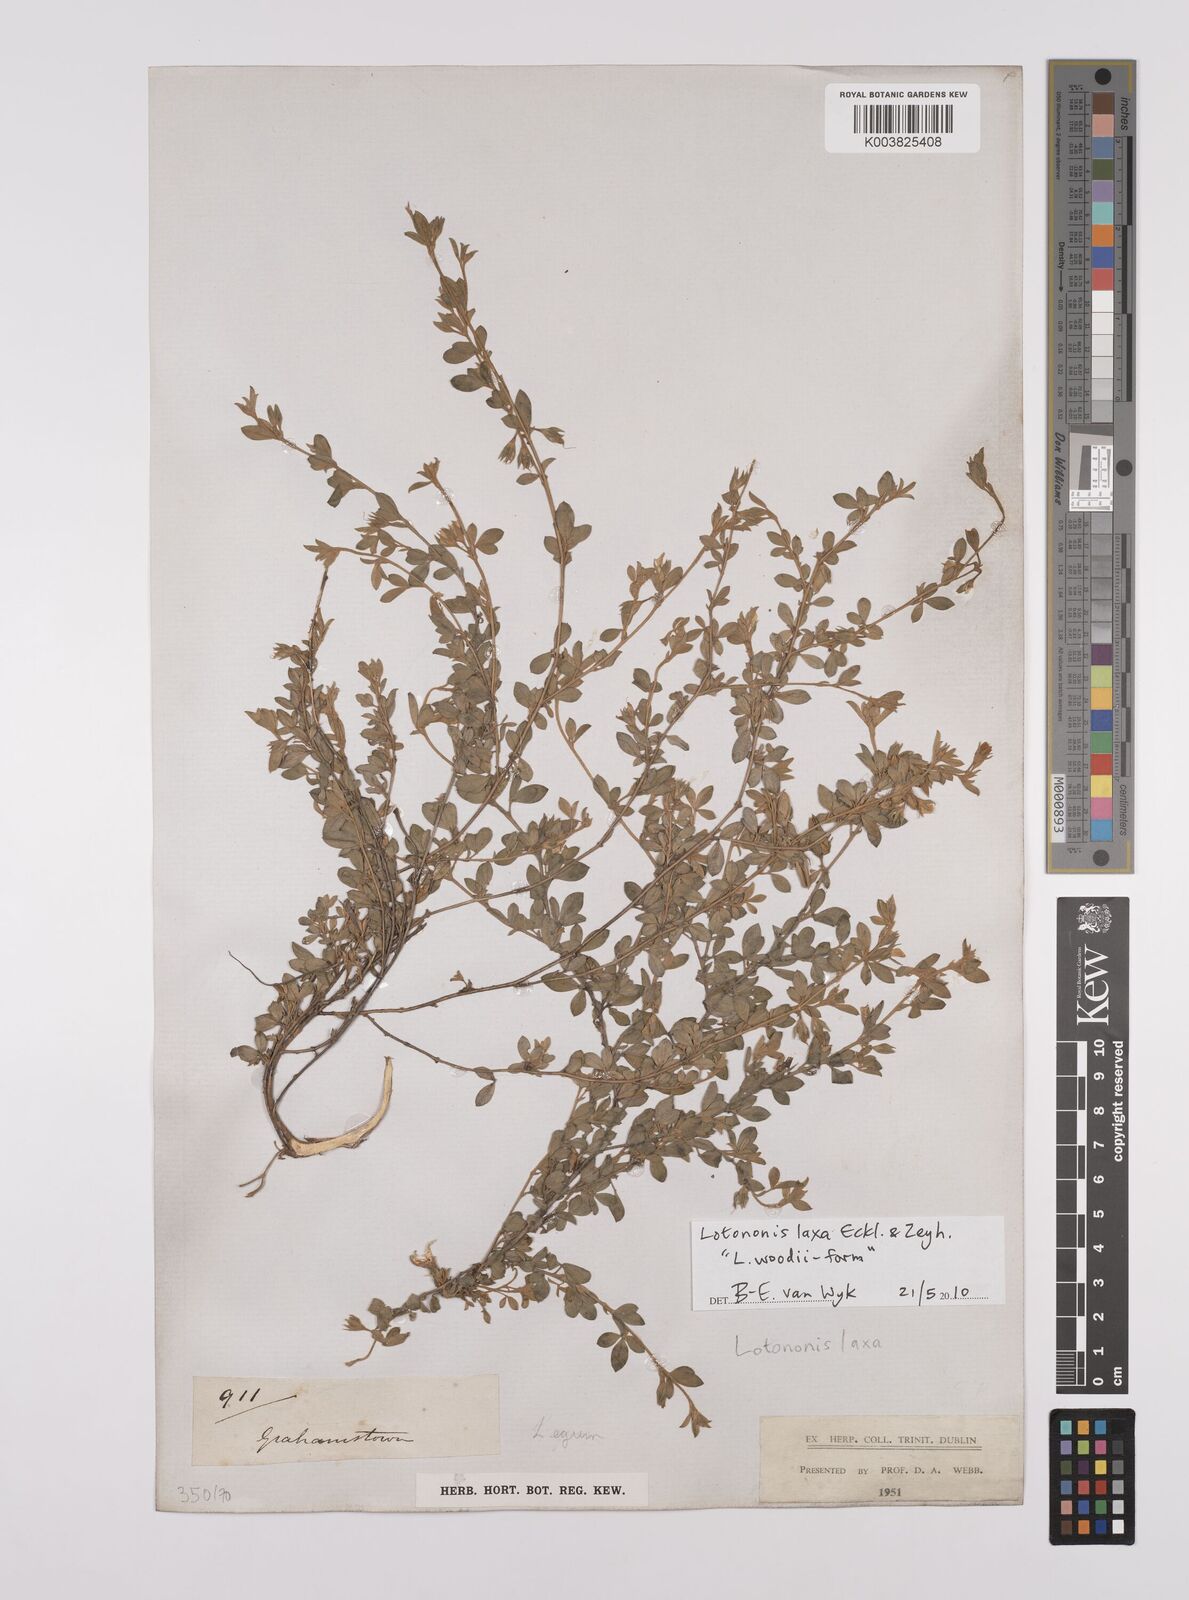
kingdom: Plantae
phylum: Tracheophyta
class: Magnoliopsida
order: Fabales
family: Fabaceae
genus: Lotononis
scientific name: Lotononis laxa
